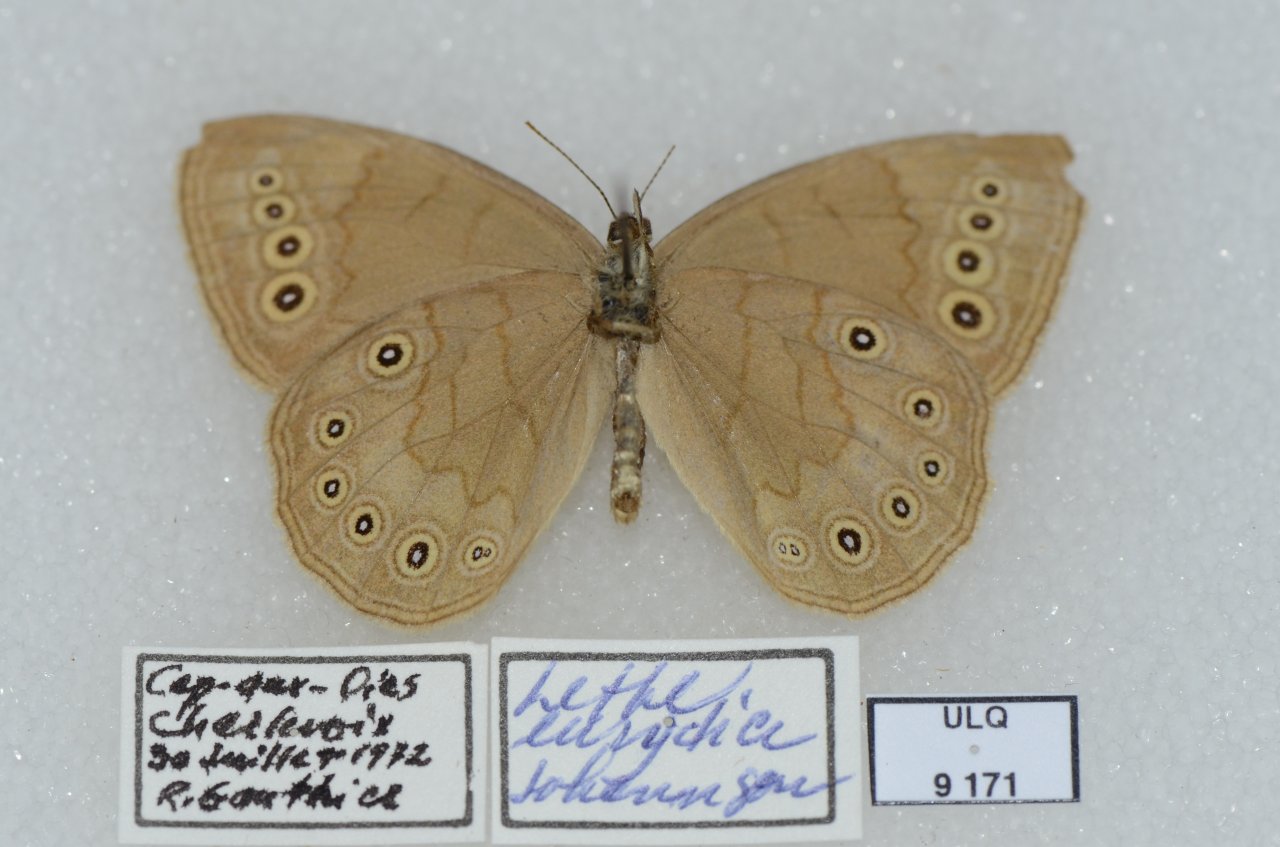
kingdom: Animalia
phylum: Arthropoda
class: Insecta
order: Lepidoptera
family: Nymphalidae
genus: Lethe
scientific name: Lethe eurydice
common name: Eyed Brown
